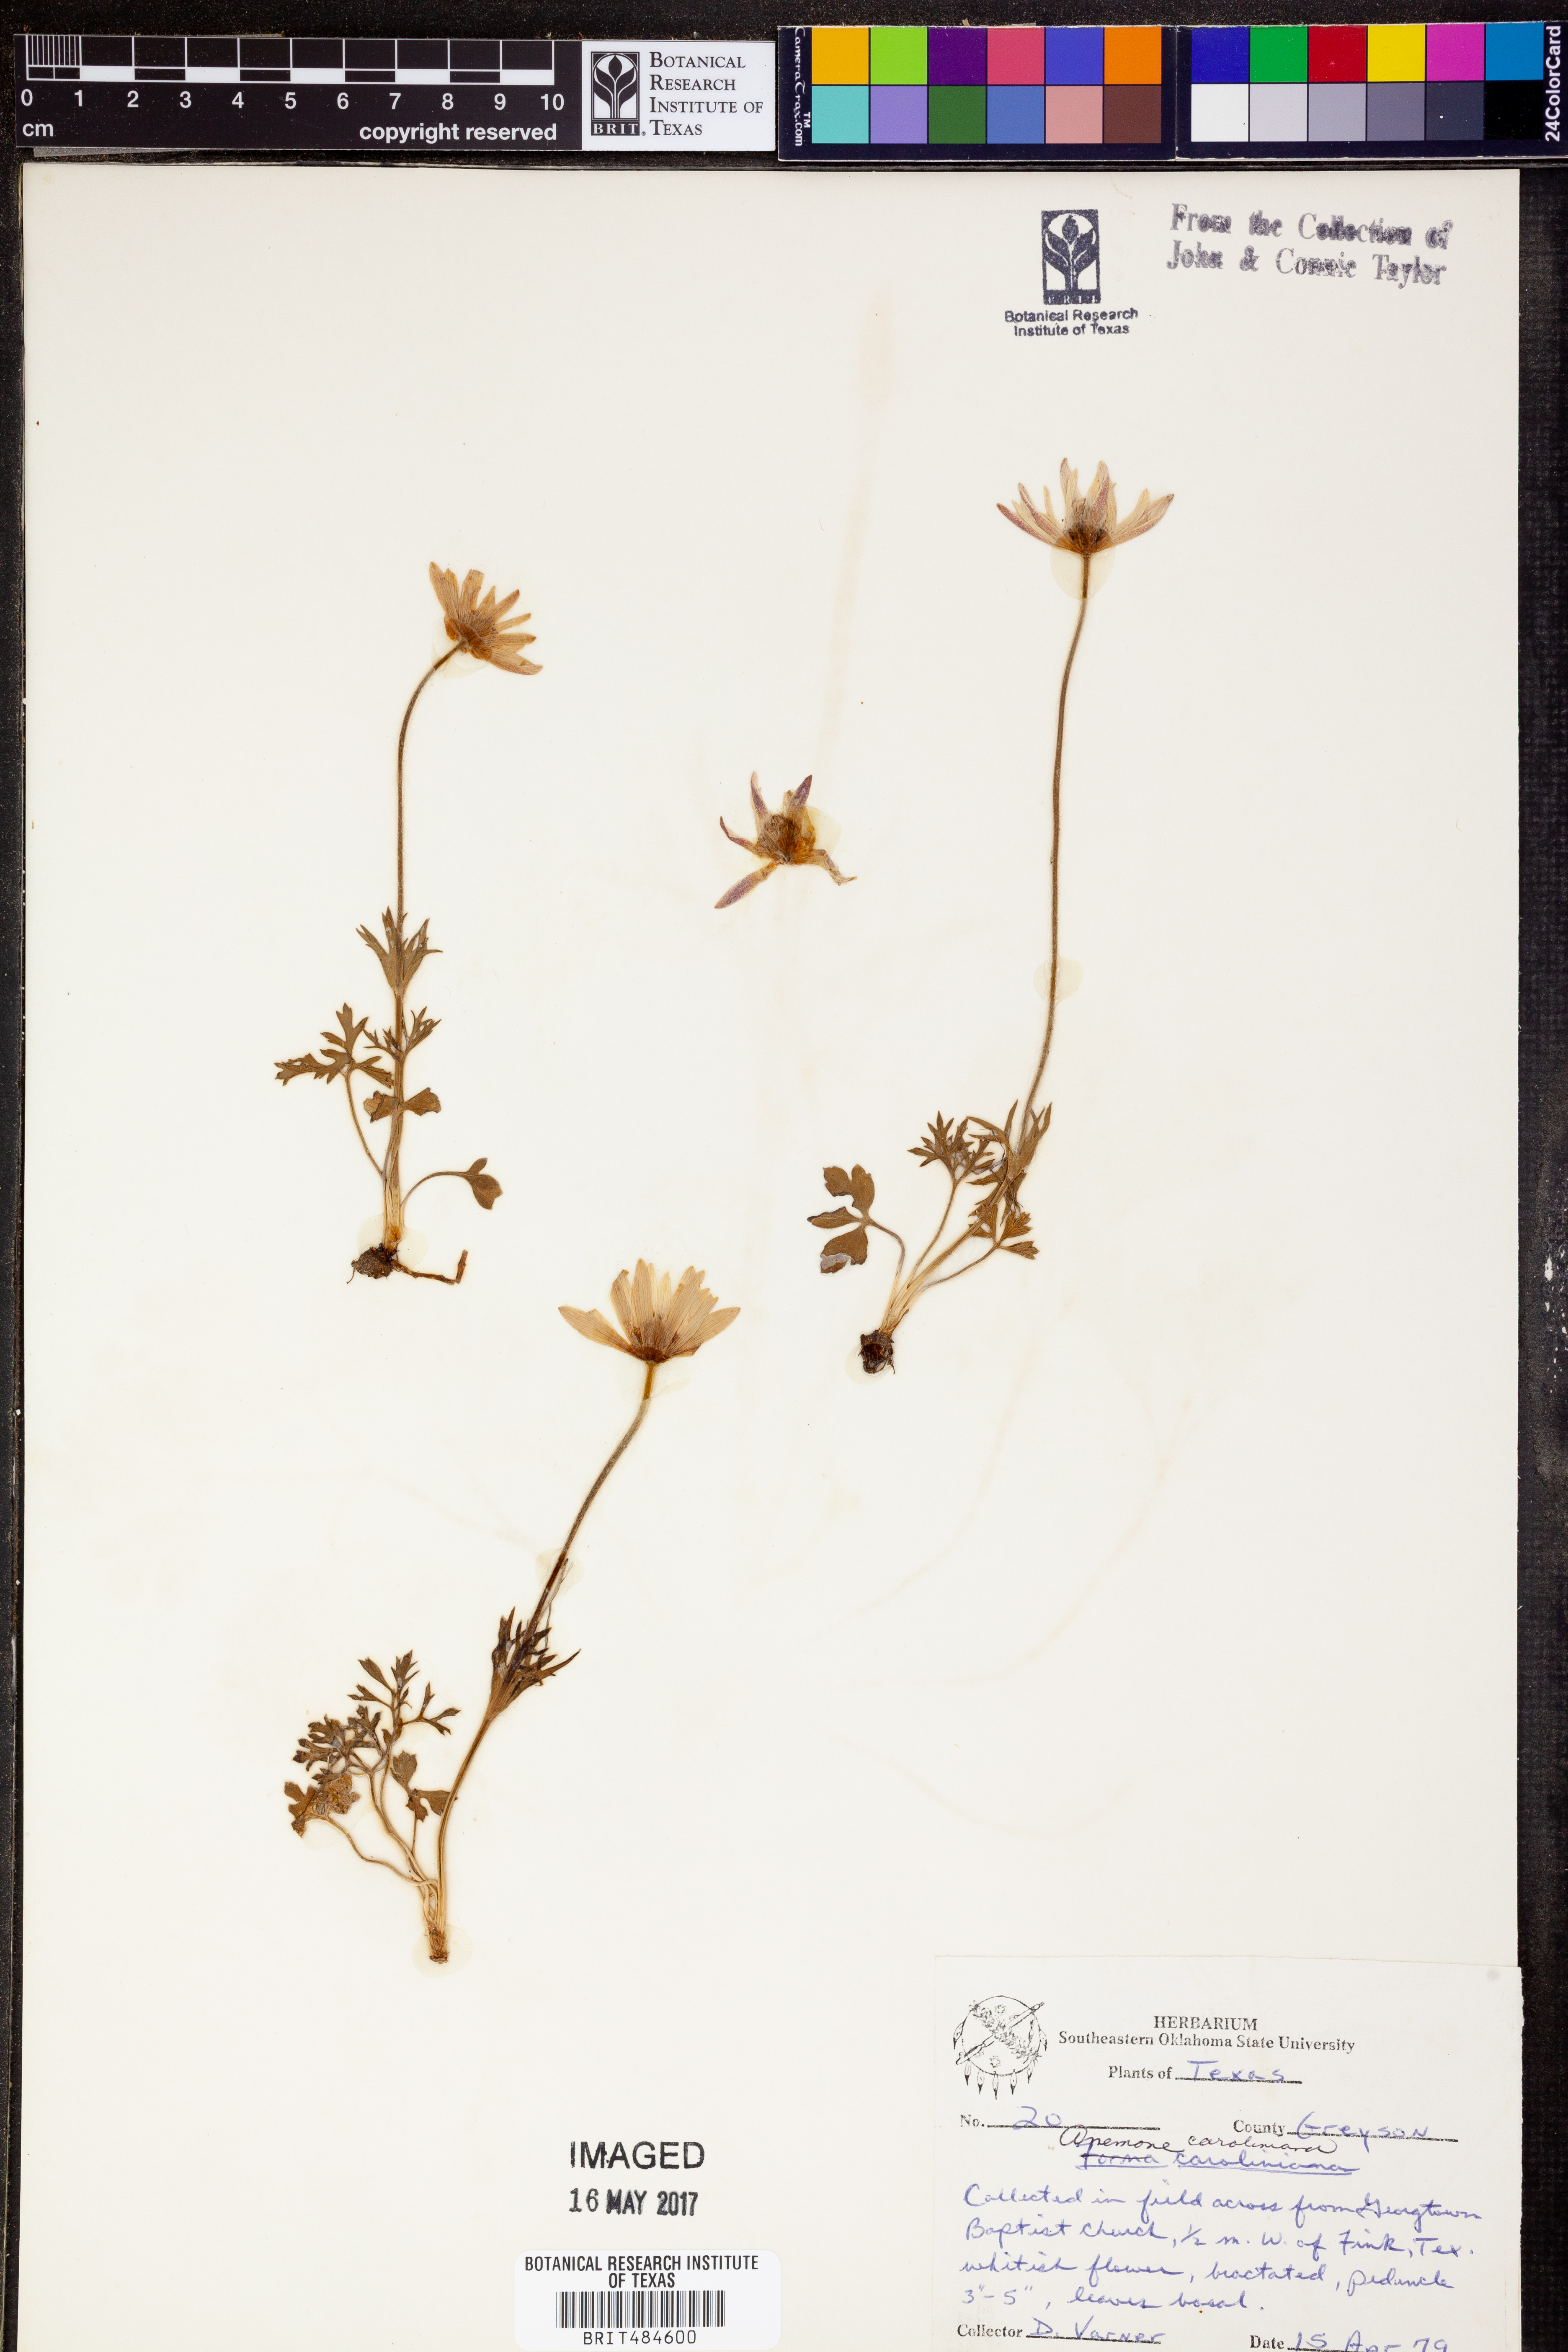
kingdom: Plantae
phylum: Tracheophyta
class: Magnoliopsida
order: Ranunculales
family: Ranunculaceae
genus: Anemone
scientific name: Anemone caroliniana
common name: Carolina anemone
